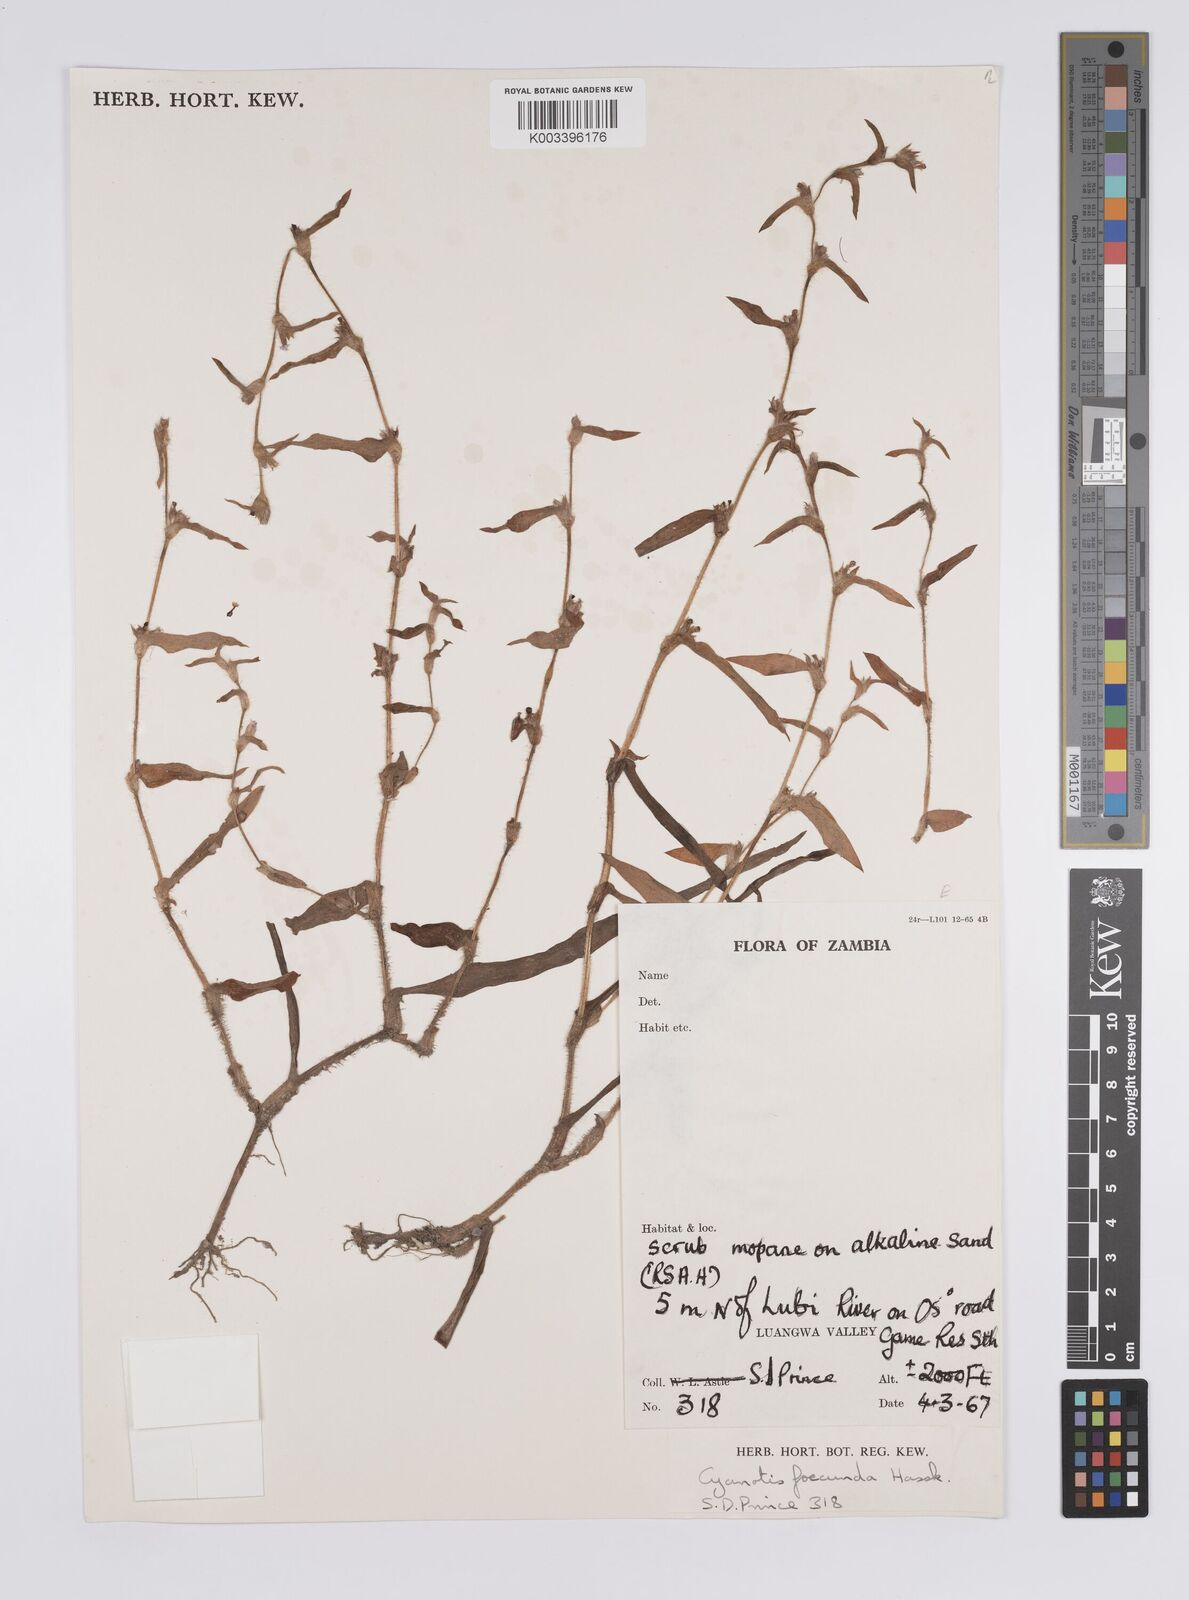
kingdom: Plantae
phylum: Tracheophyta
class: Liliopsida
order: Commelinales
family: Commelinaceae
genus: Cyanotis
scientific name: Cyanotis foecunda
